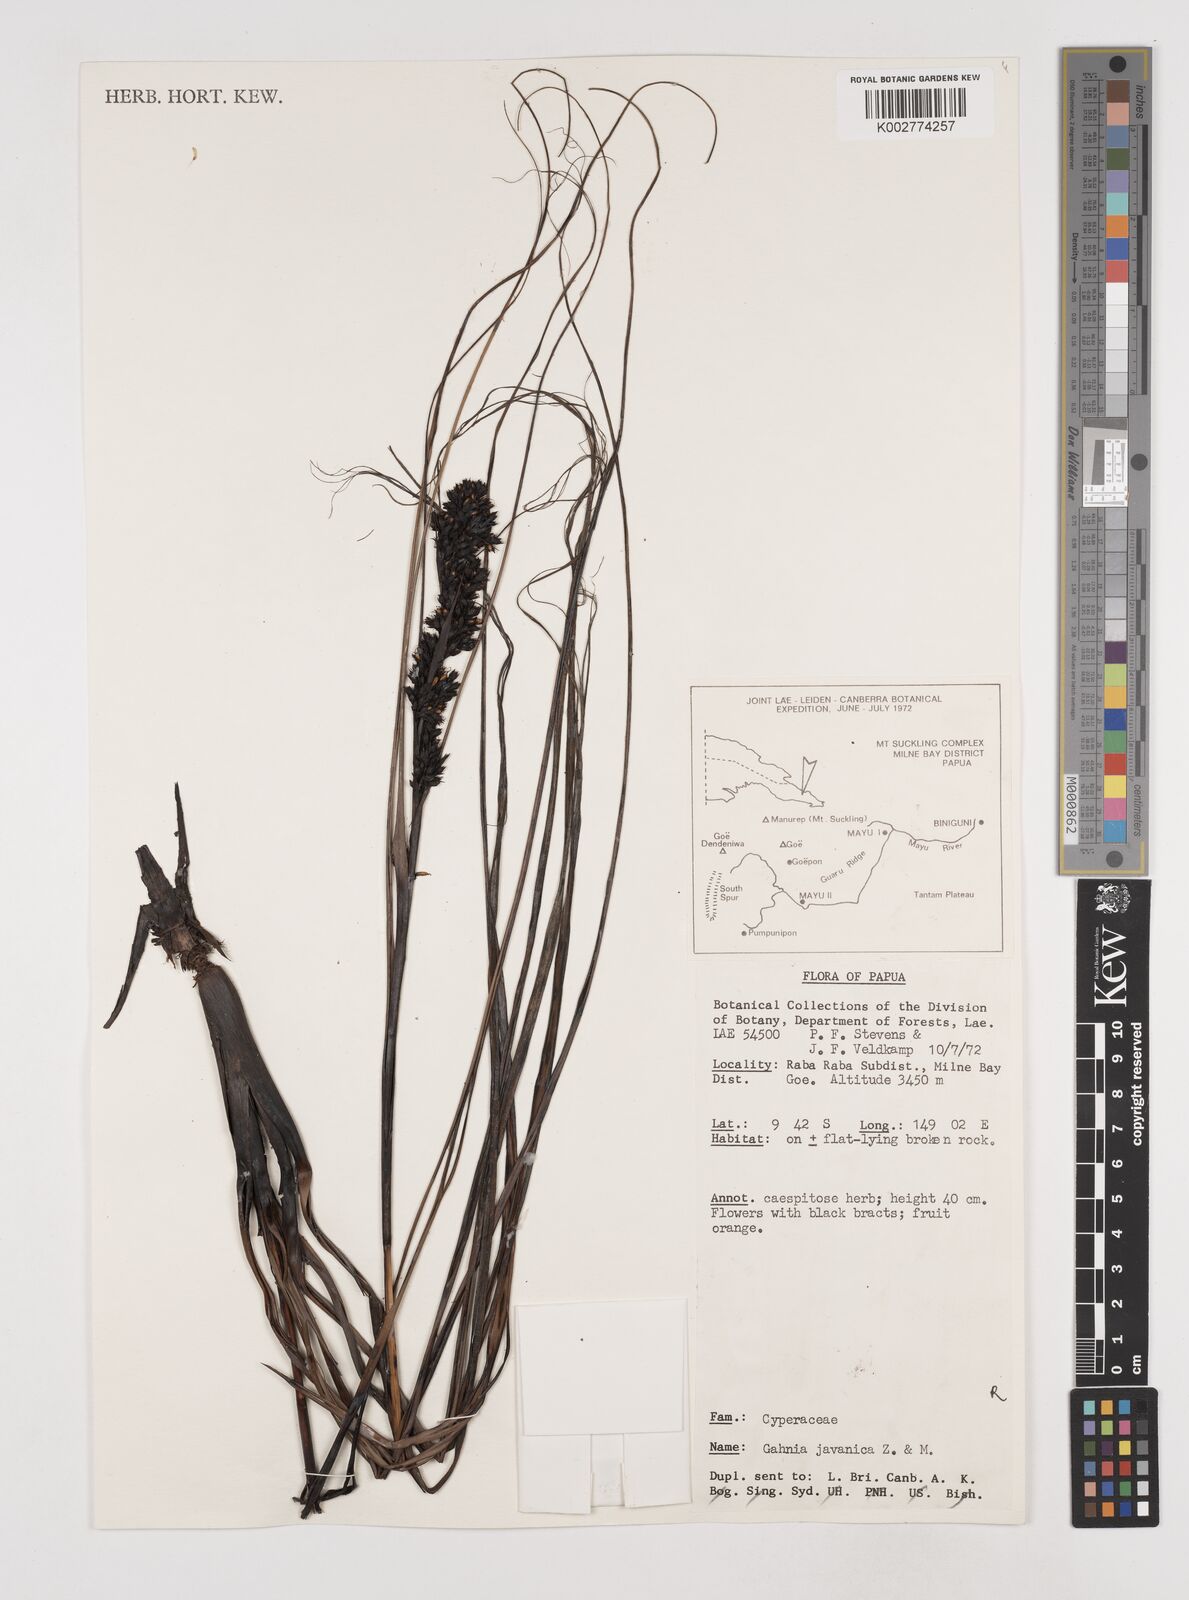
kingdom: Plantae
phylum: Tracheophyta
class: Liliopsida
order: Poales
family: Cyperaceae
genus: Gahnia
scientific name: Gahnia javanica
